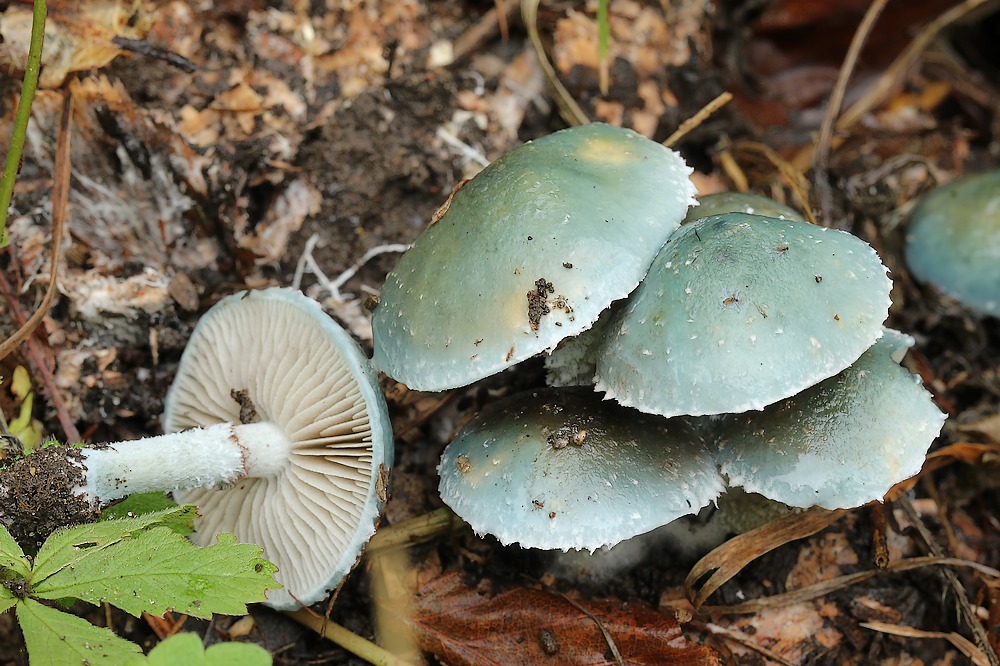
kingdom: Fungi
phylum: Basidiomycota
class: Agaricomycetes
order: Agaricales
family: Strophariaceae
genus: Stropharia
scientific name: Stropharia aeruginosa
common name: spanskgrøn bredblad
